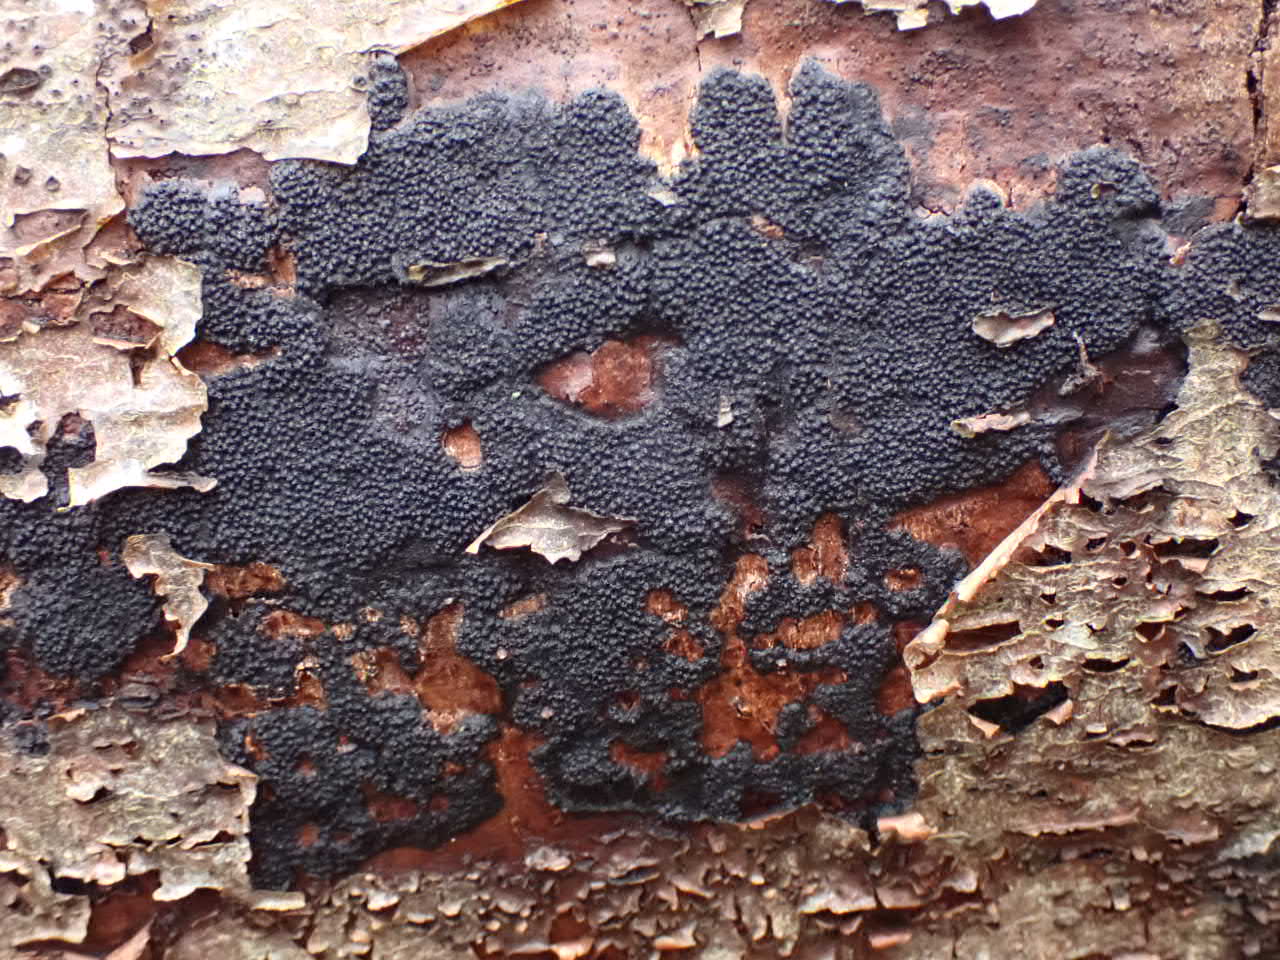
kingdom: Fungi
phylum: Ascomycota
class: Sordariomycetes
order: Xylariales
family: Diatrypaceae
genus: Eutypa
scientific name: Eutypa spinosa
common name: grov kulskorpe
